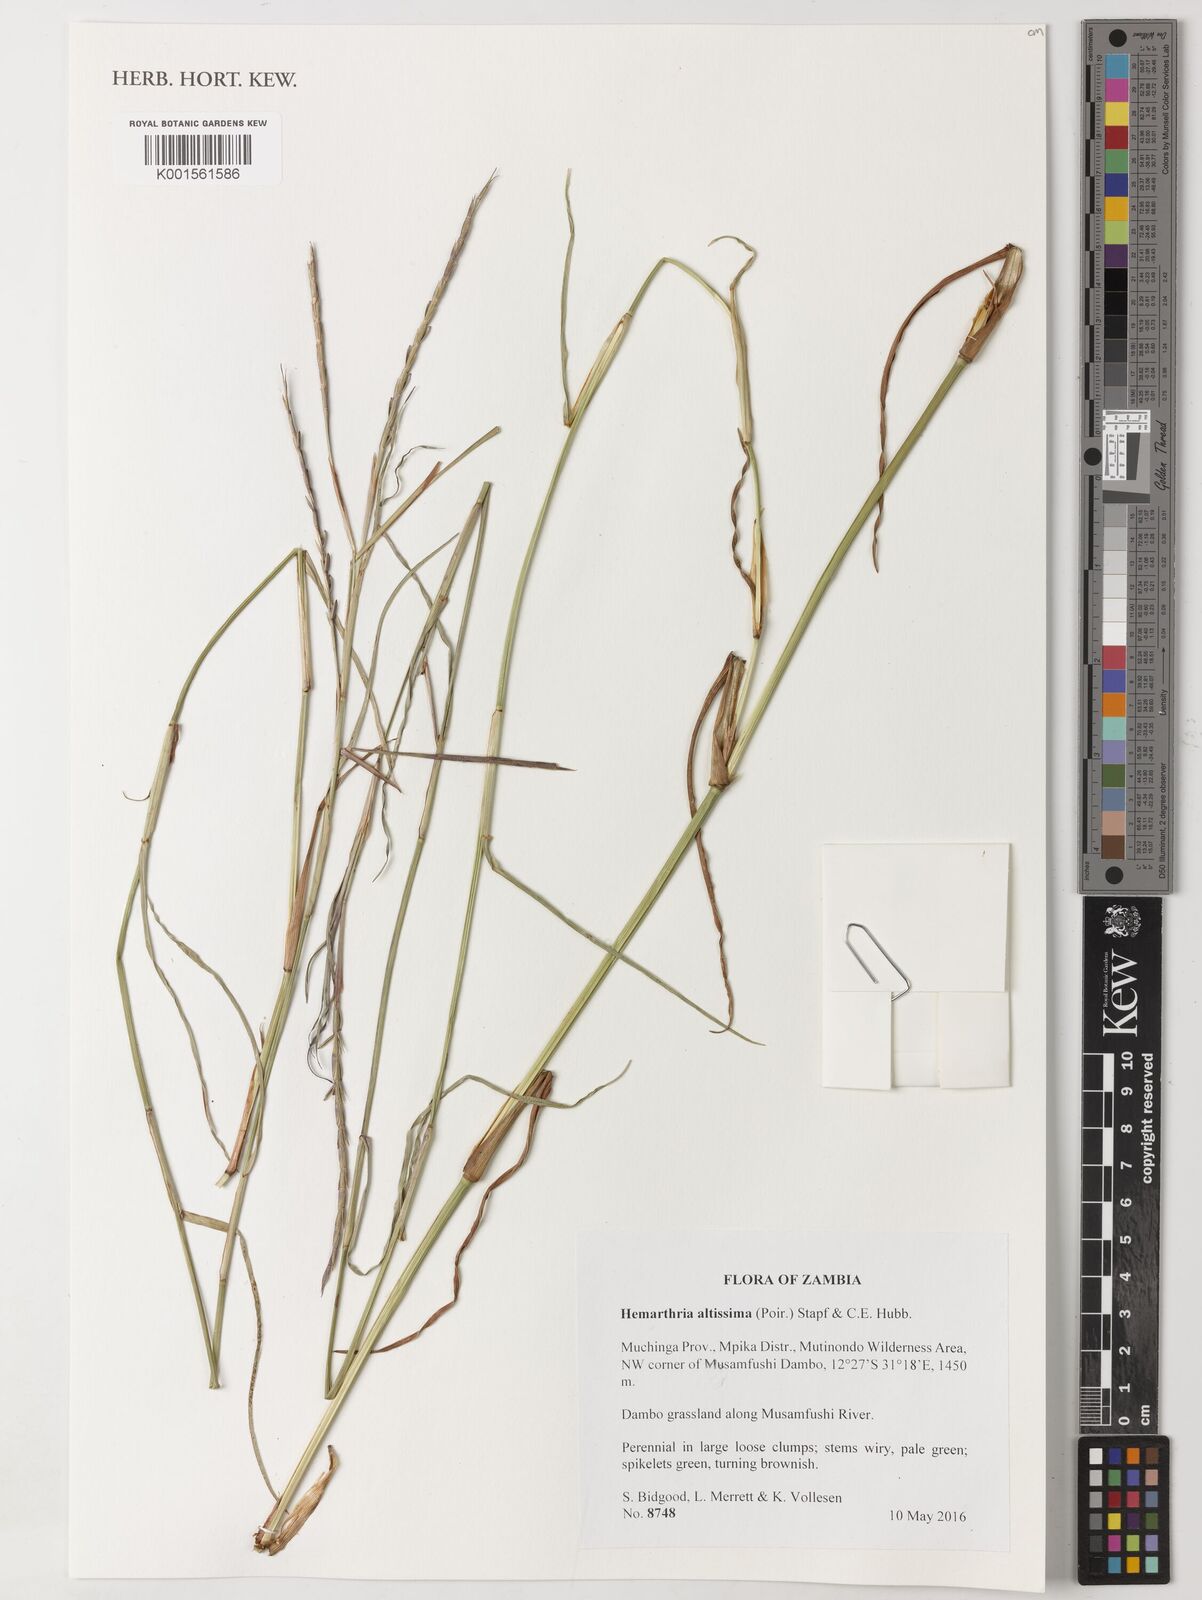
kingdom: Plantae
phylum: Tracheophyta
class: Liliopsida
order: Poales
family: Poaceae
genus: Hemarthria
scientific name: Hemarthria altissima
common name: African jointgrass
